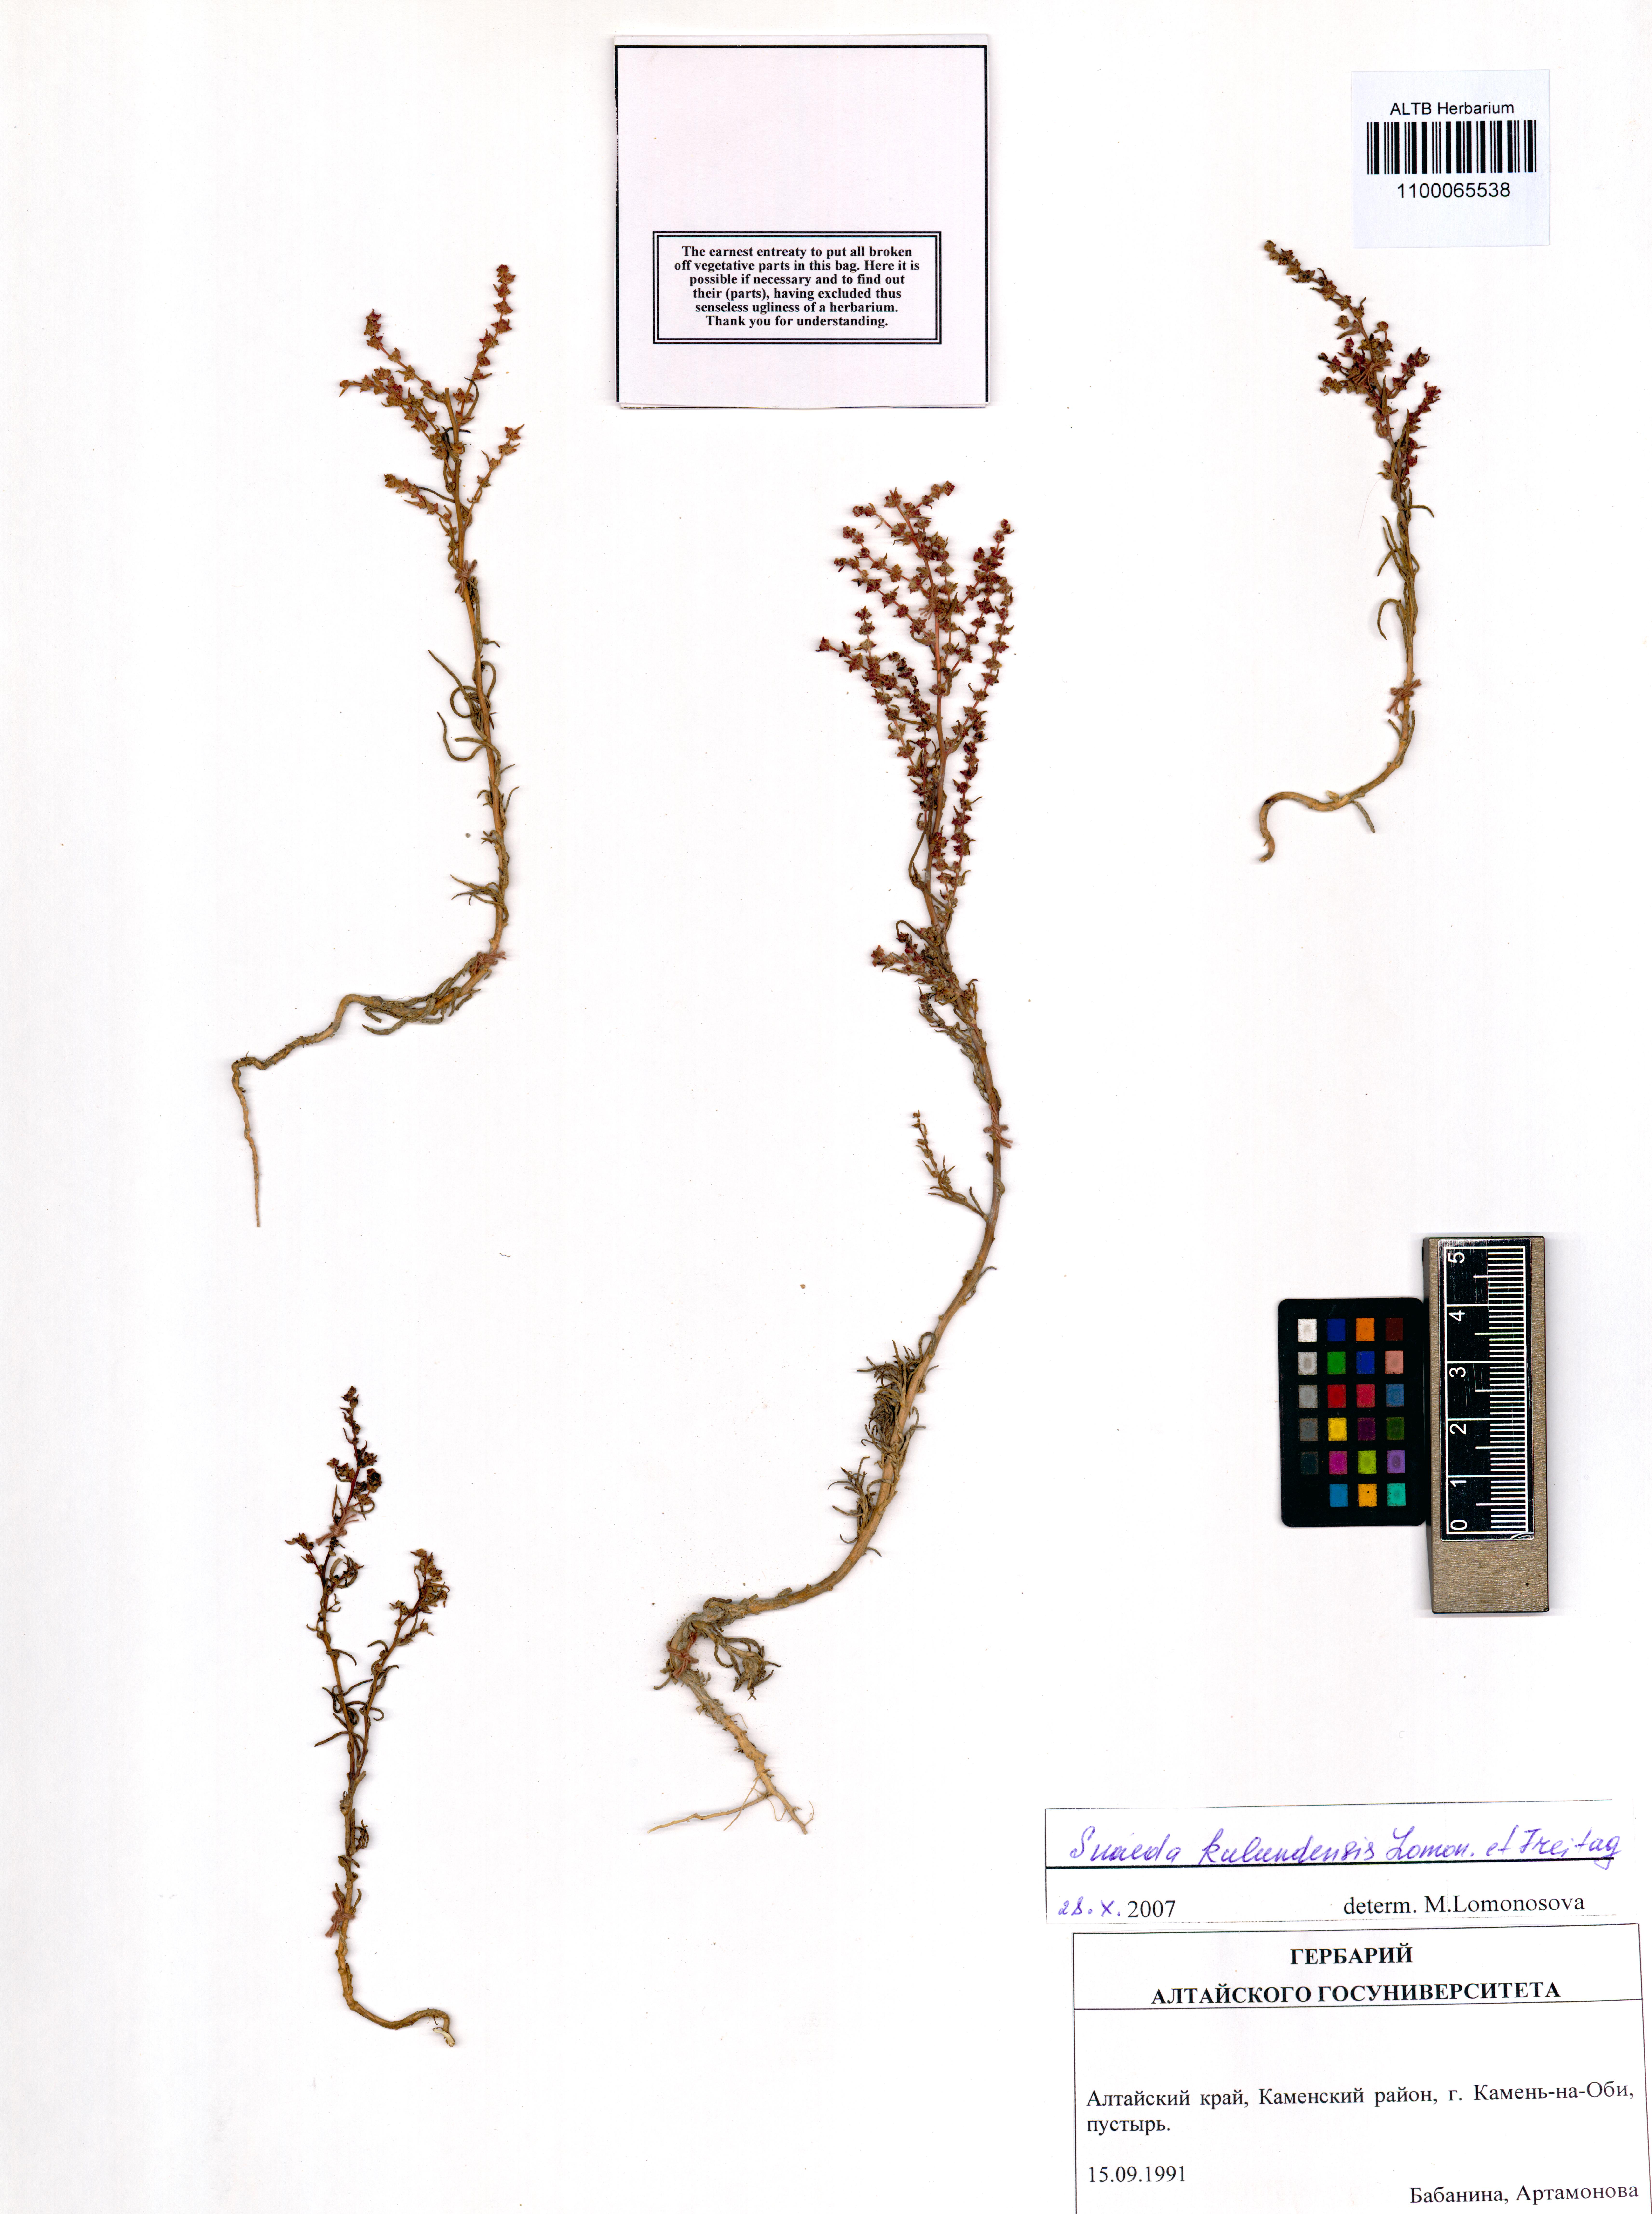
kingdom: Plantae
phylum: Tracheophyta
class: Magnoliopsida
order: Caryophyllales
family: Amaranthaceae
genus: Suaeda
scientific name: Suaeda kulundensis
